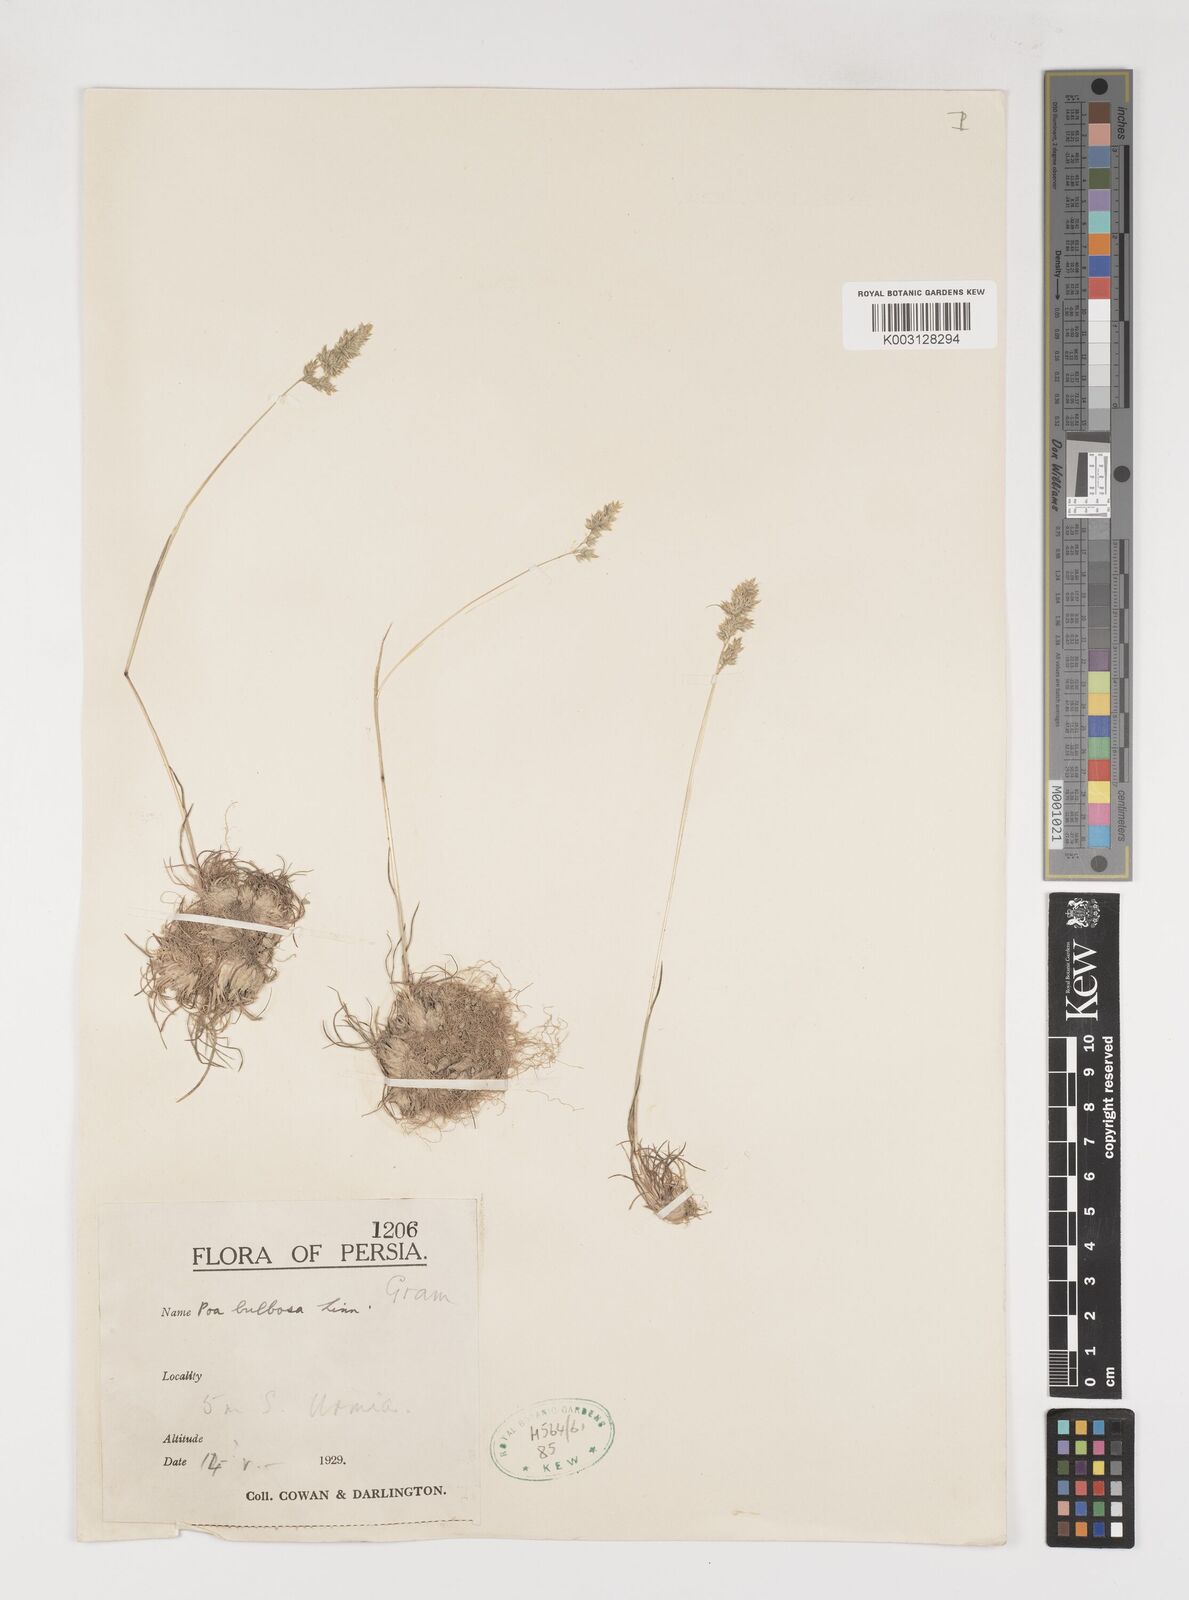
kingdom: Plantae
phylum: Tracheophyta
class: Liliopsida
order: Poales
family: Poaceae
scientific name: Poaceae
